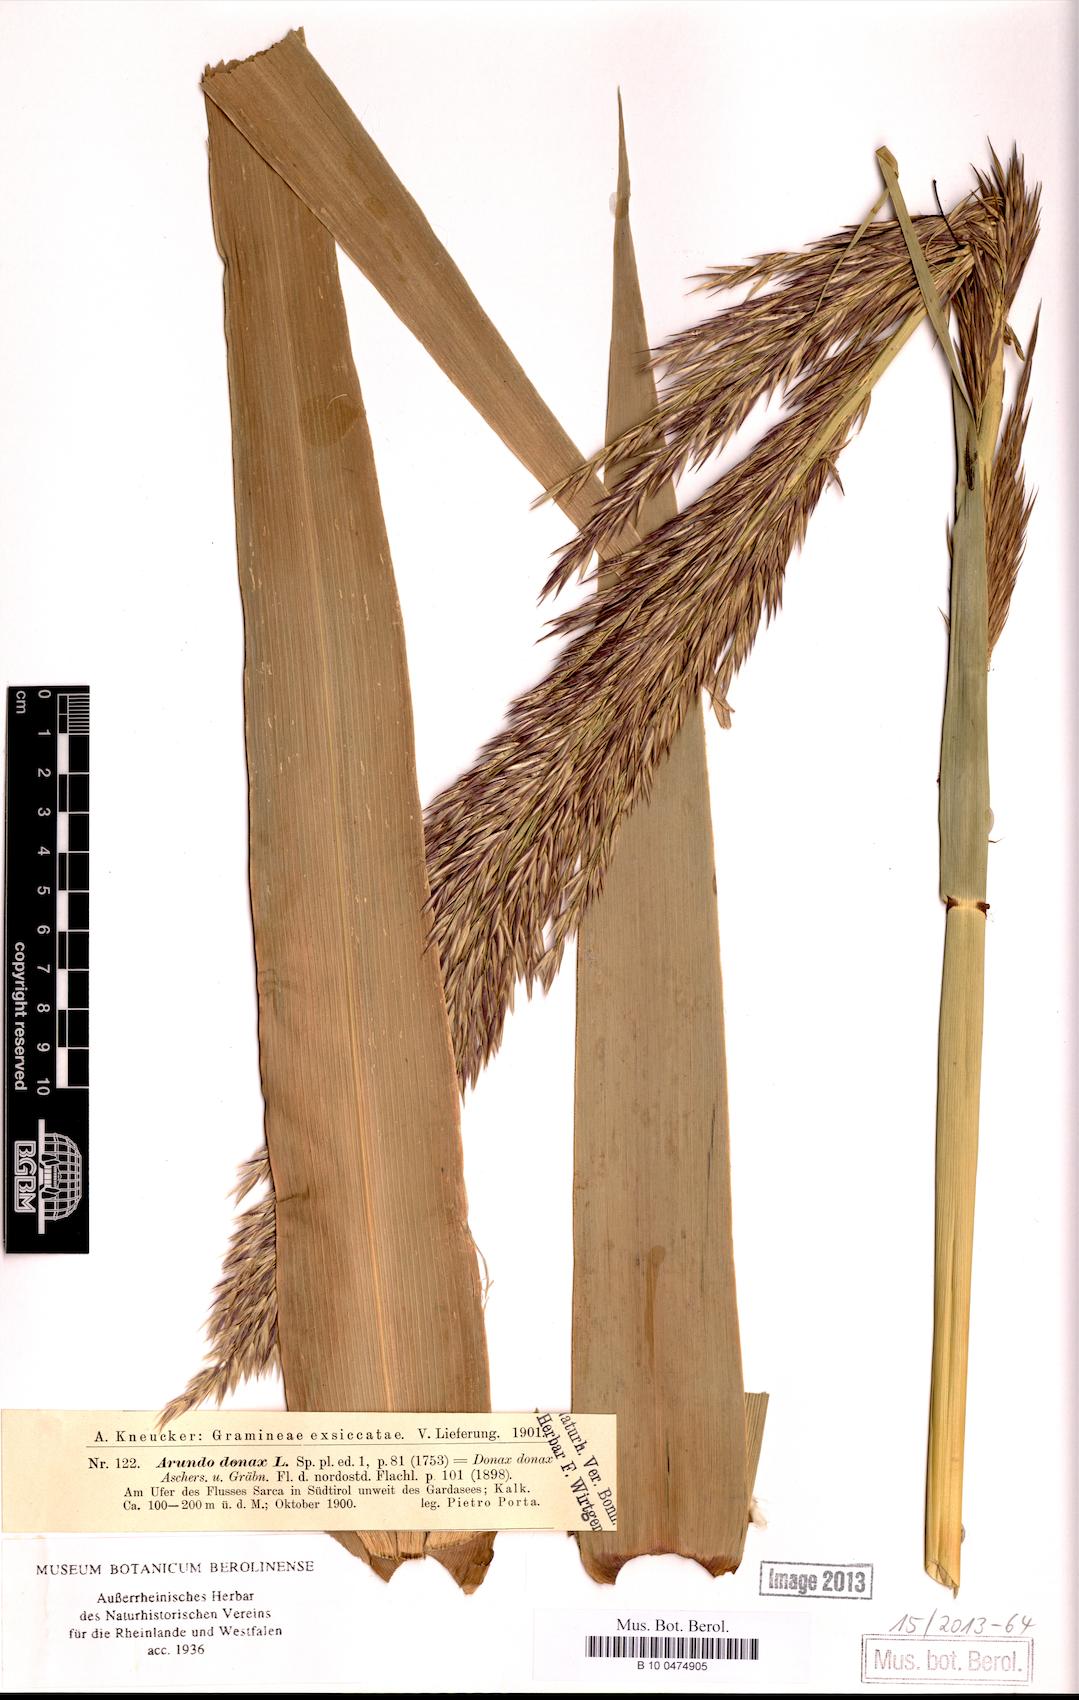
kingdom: Plantae
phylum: Tracheophyta
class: Liliopsida
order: Poales
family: Poaceae
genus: Arundo
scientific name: Arundo donax
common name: Giant reed
